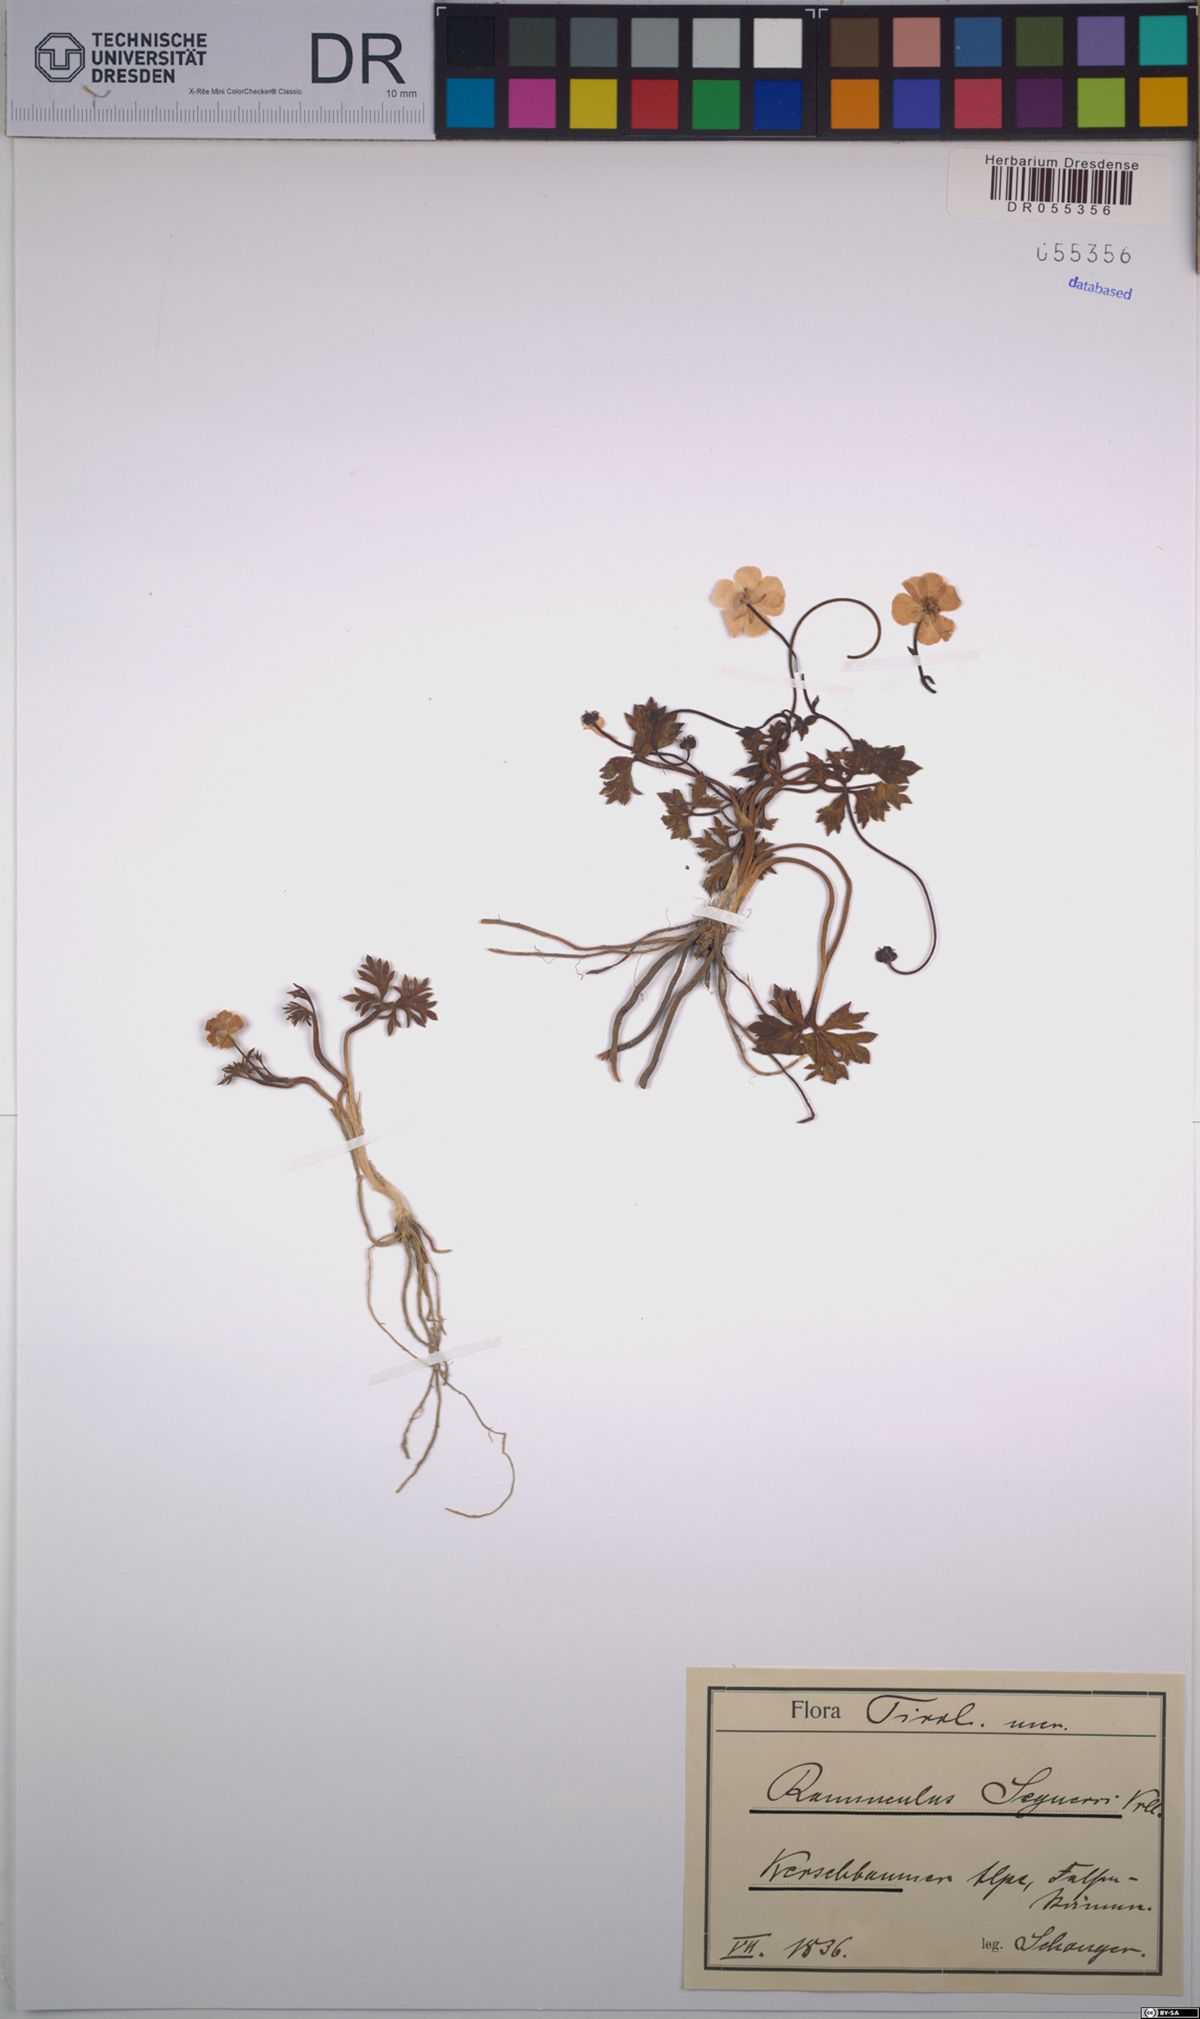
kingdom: Plantae
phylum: Tracheophyta
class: Magnoliopsida
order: Ranunculales
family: Ranunculaceae
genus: Ranunculus
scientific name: Ranunculus seguieri
